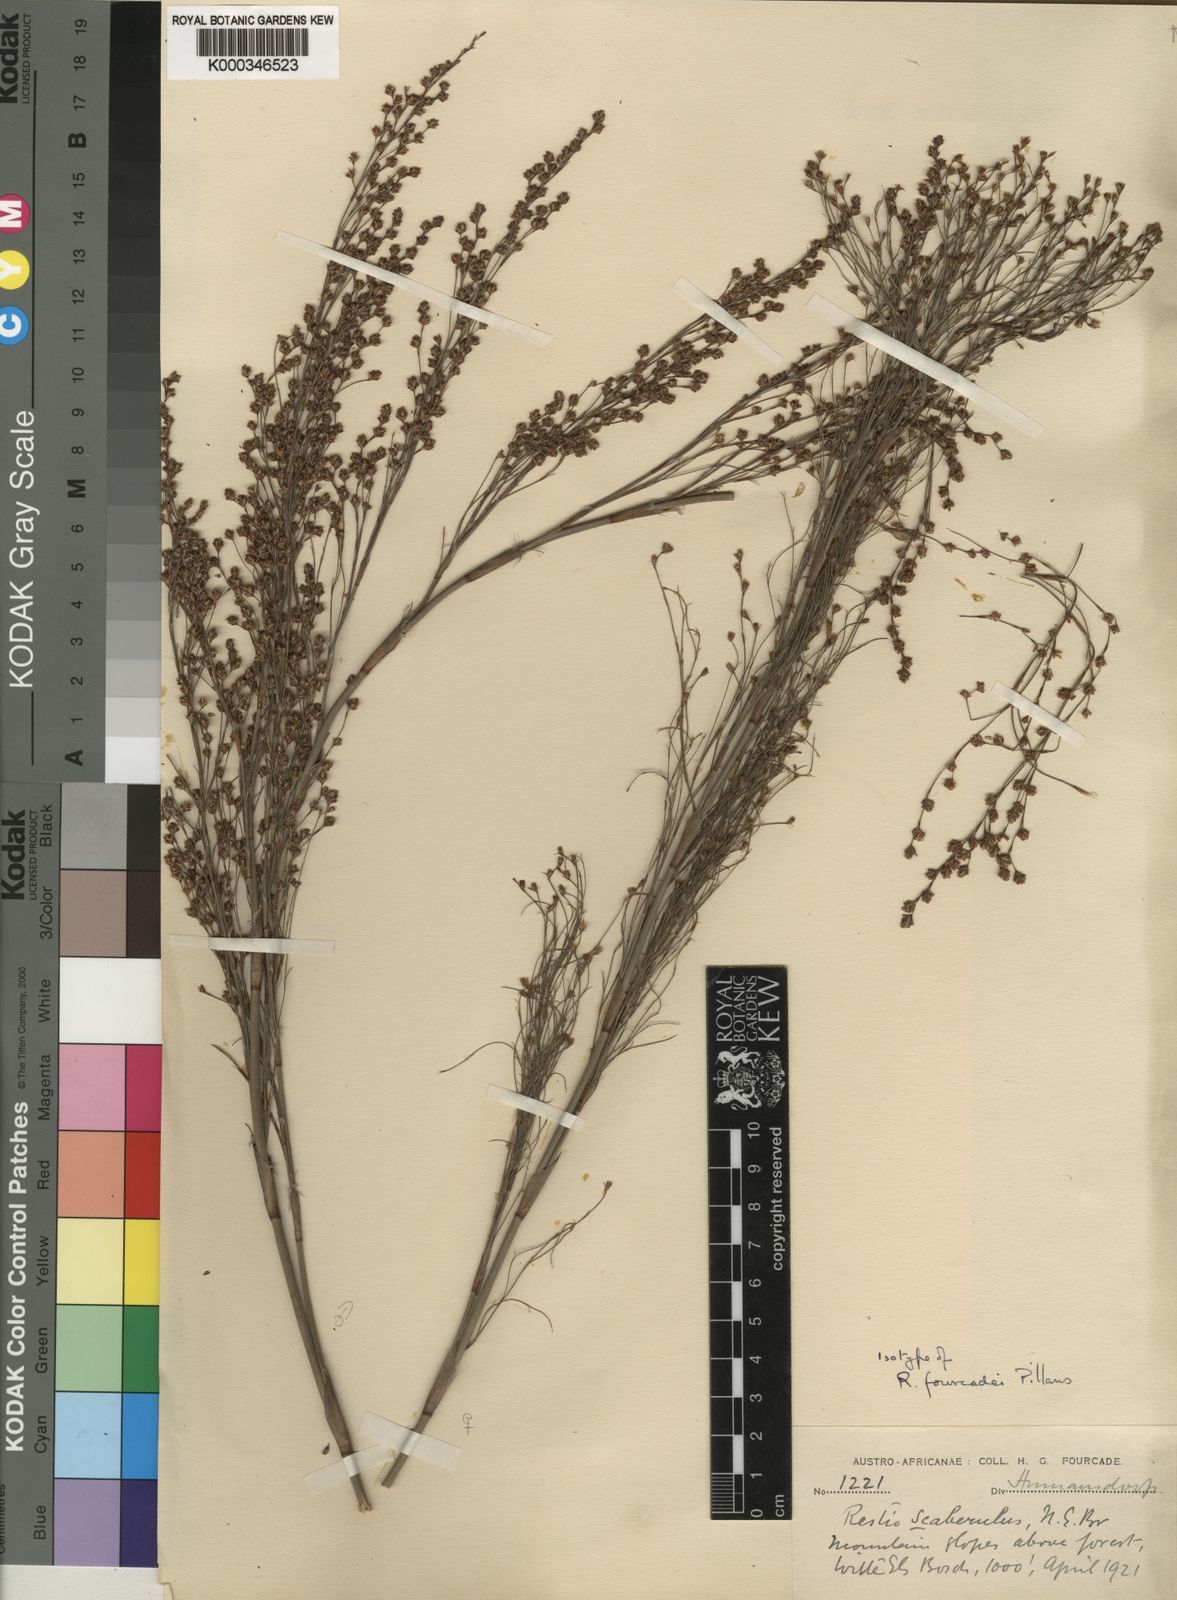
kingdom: Plantae
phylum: Tracheophyta
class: Liliopsida
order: Poales
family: Restionaceae
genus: Restio
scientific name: Restio fourcadei
